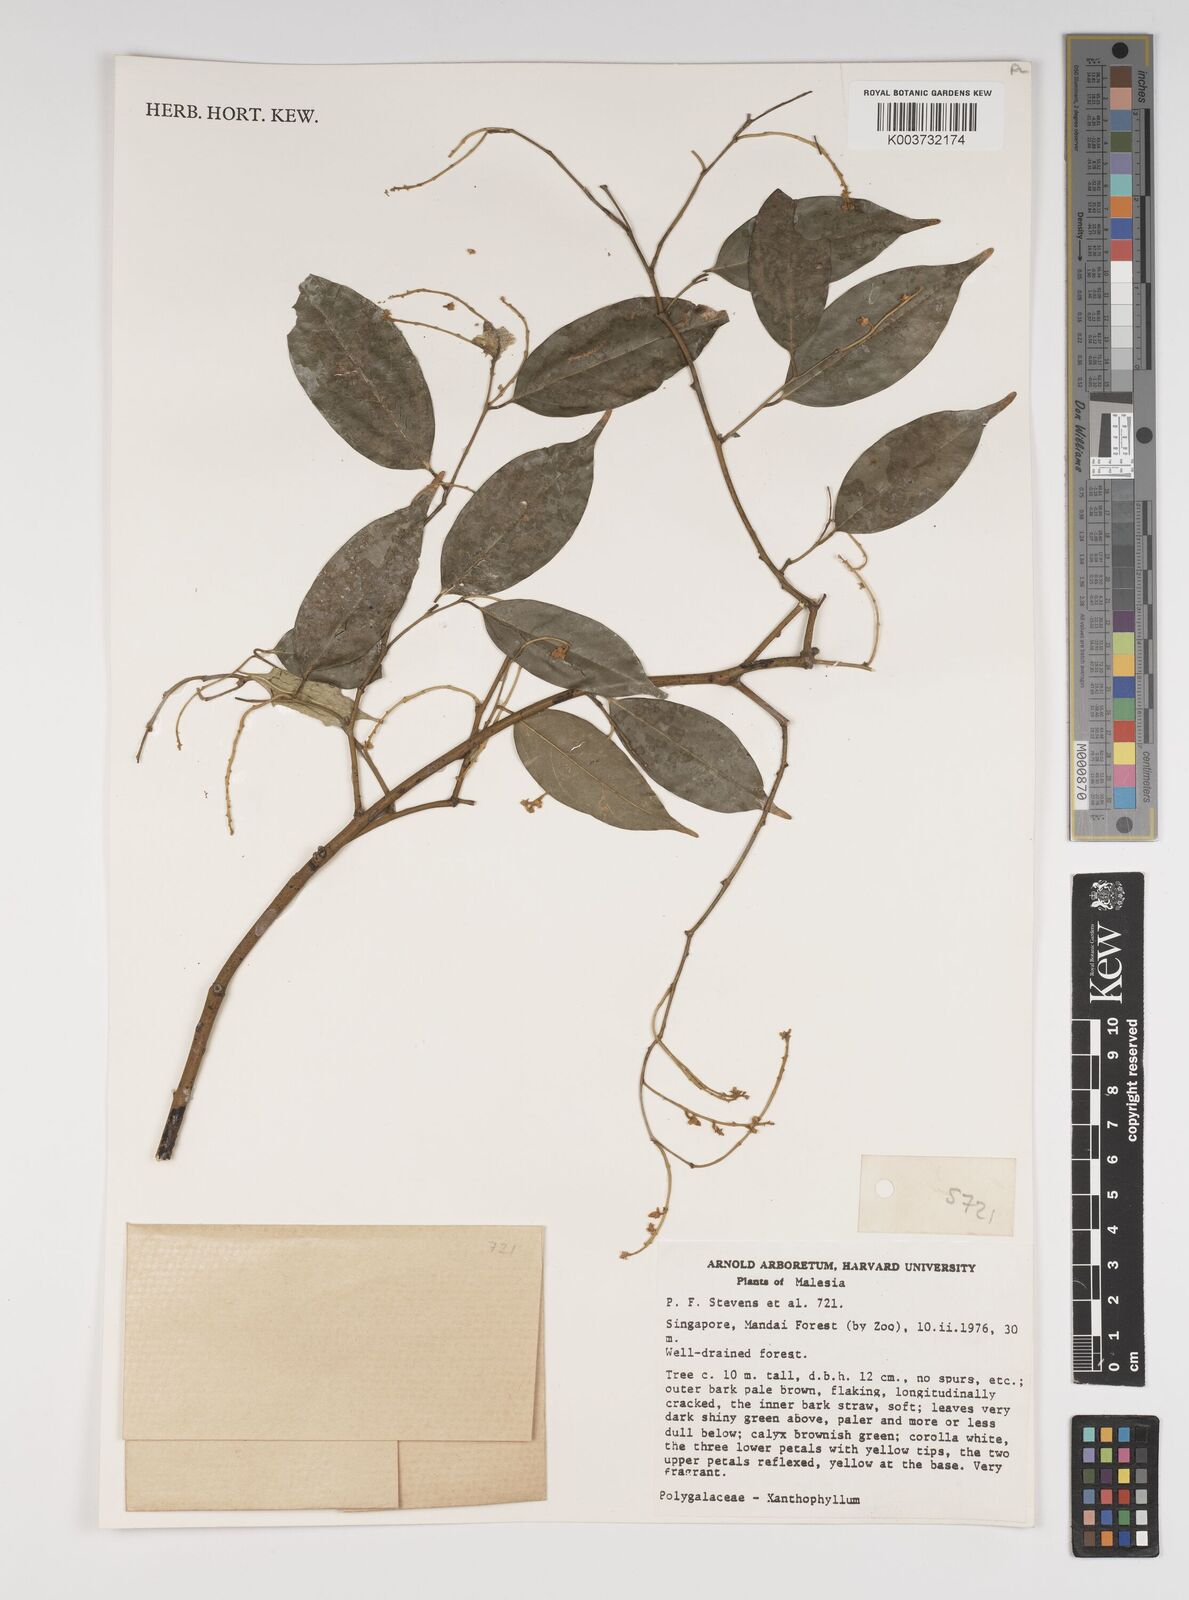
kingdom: Plantae
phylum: Tracheophyta
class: Magnoliopsida
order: Fabales
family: Polygalaceae
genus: Xanthophyllum
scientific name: Xanthophyllum
